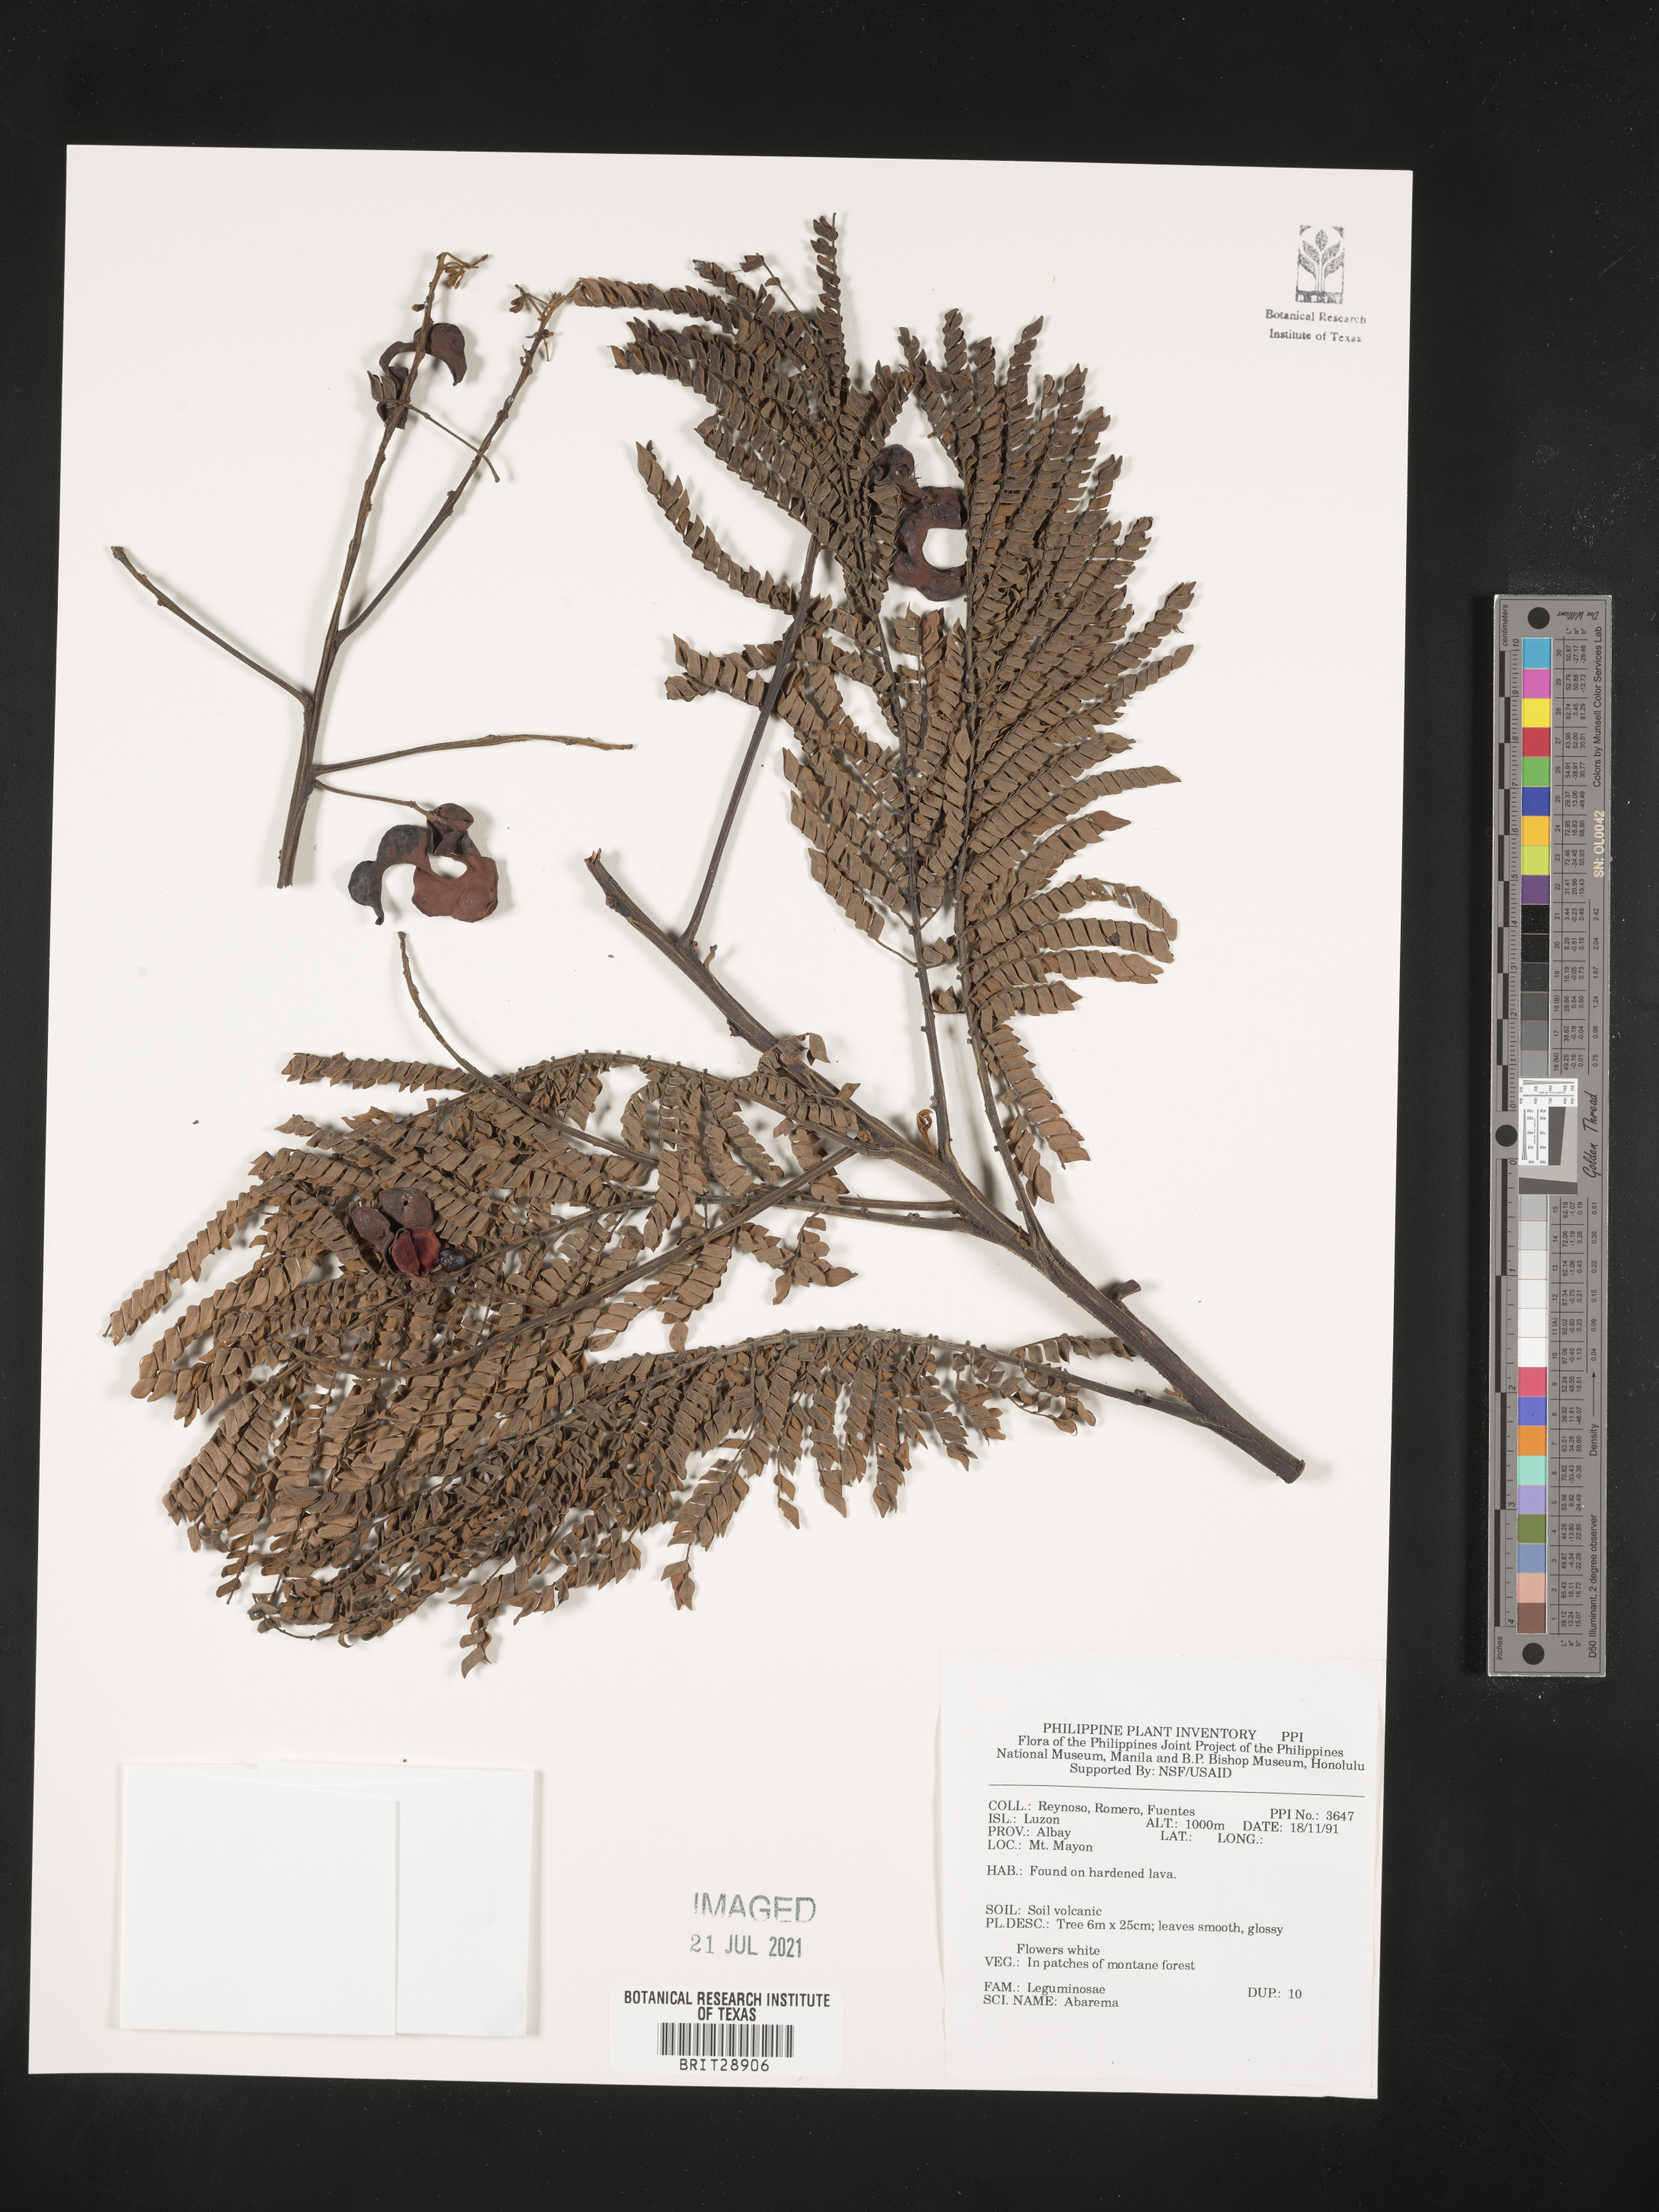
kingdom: Plantae
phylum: Tracheophyta
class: Magnoliopsida
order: Fabales
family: Fabaceae
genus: Abarema
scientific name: Abarema
